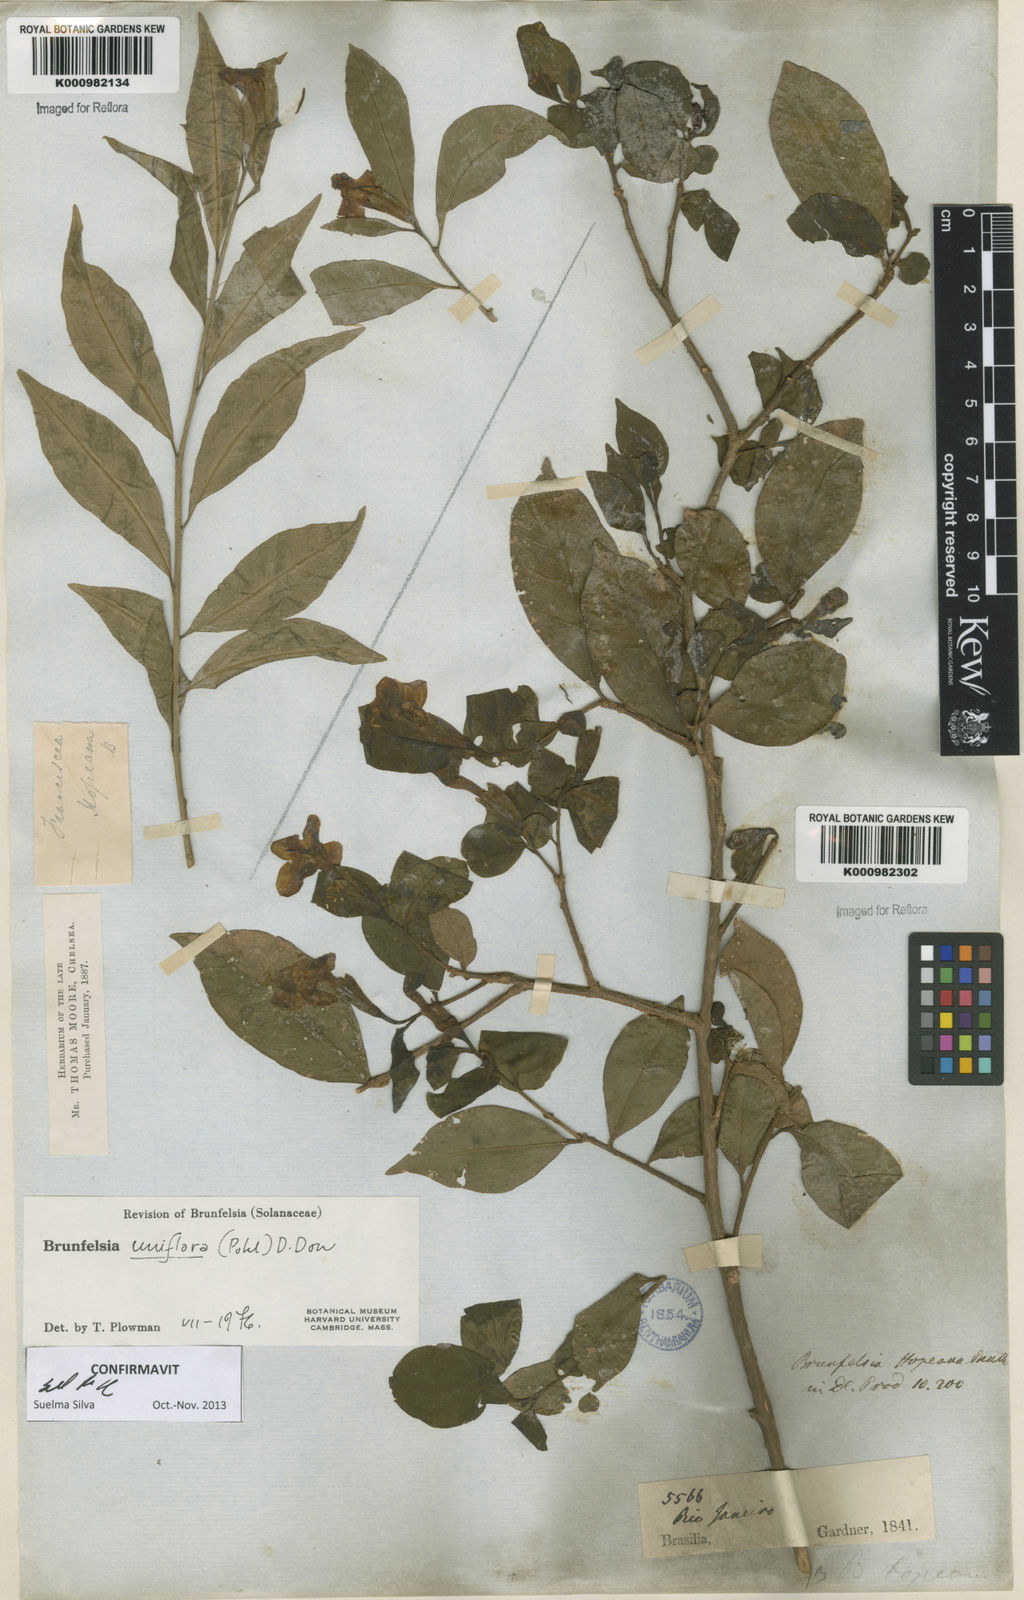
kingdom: Plantae
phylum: Tracheophyta
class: Magnoliopsida
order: Solanales
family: Solanaceae
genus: Brunfelsia
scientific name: Brunfelsia uniflora
